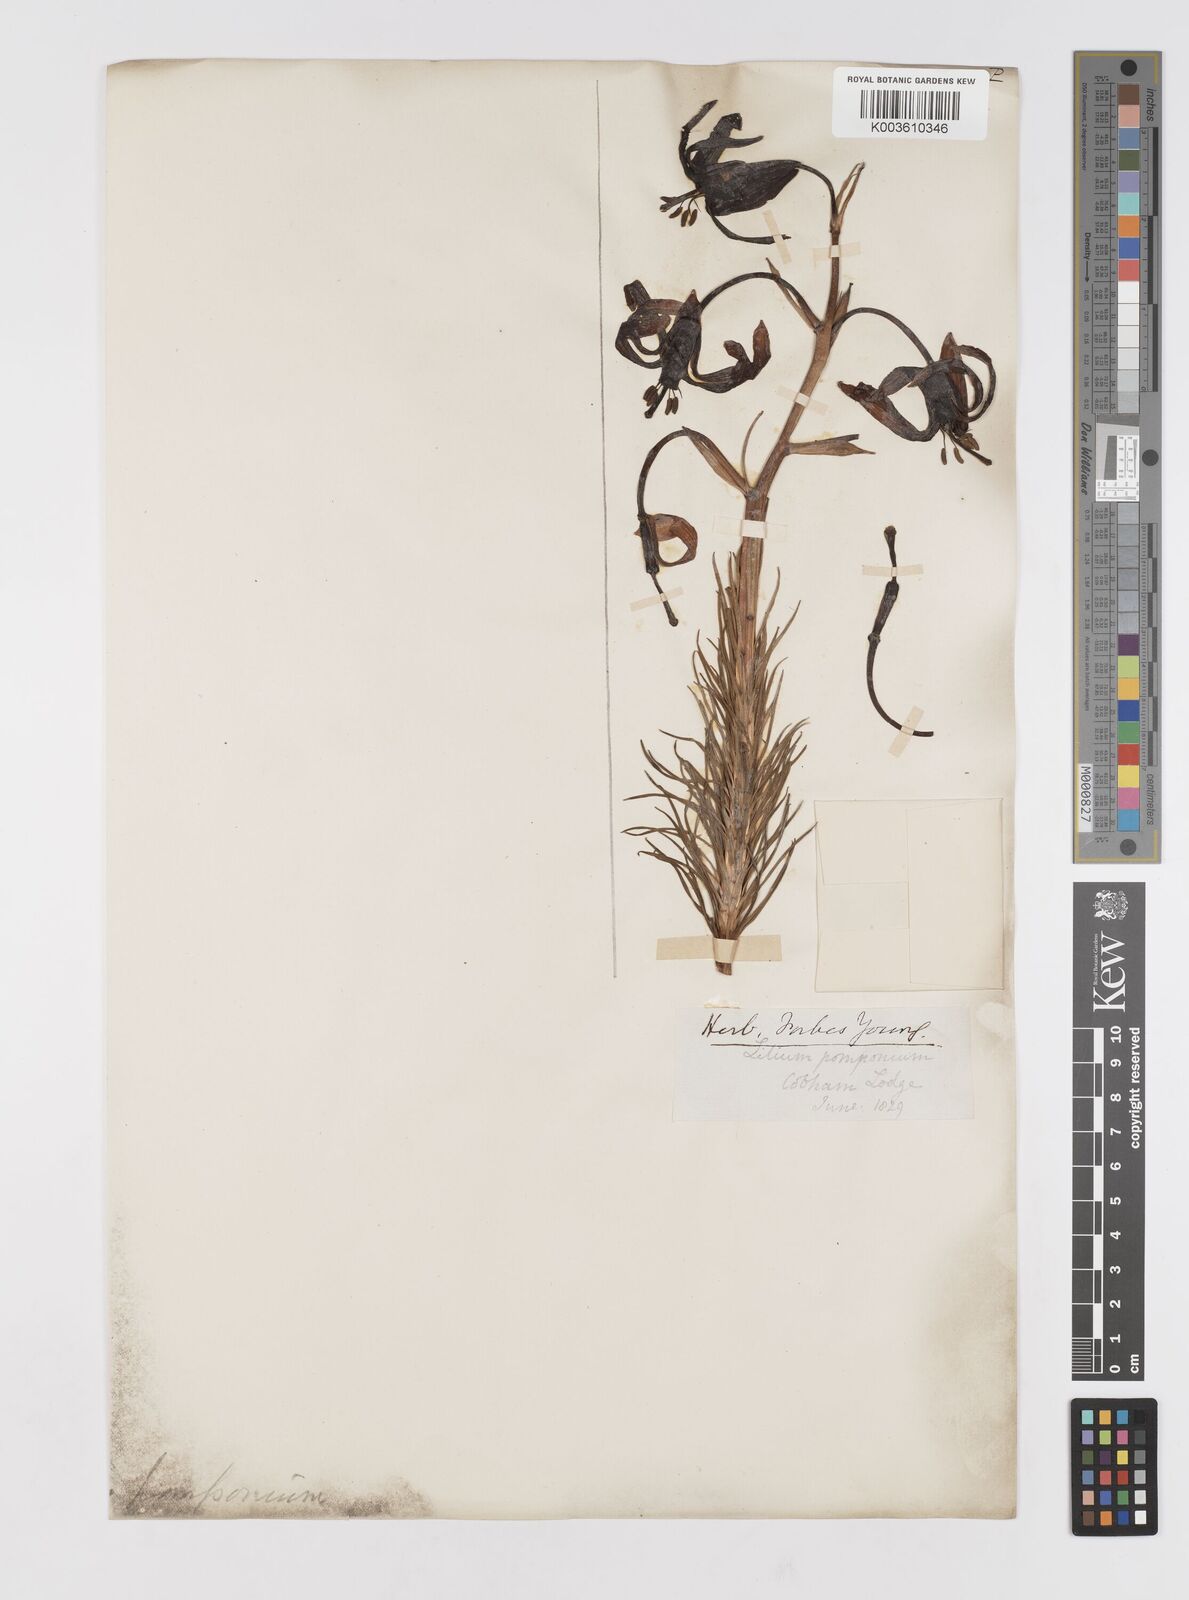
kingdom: Plantae
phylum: Tracheophyta
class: Liliopsida
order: Liliales
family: Liliaceae
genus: Lilium
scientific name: Lilium
